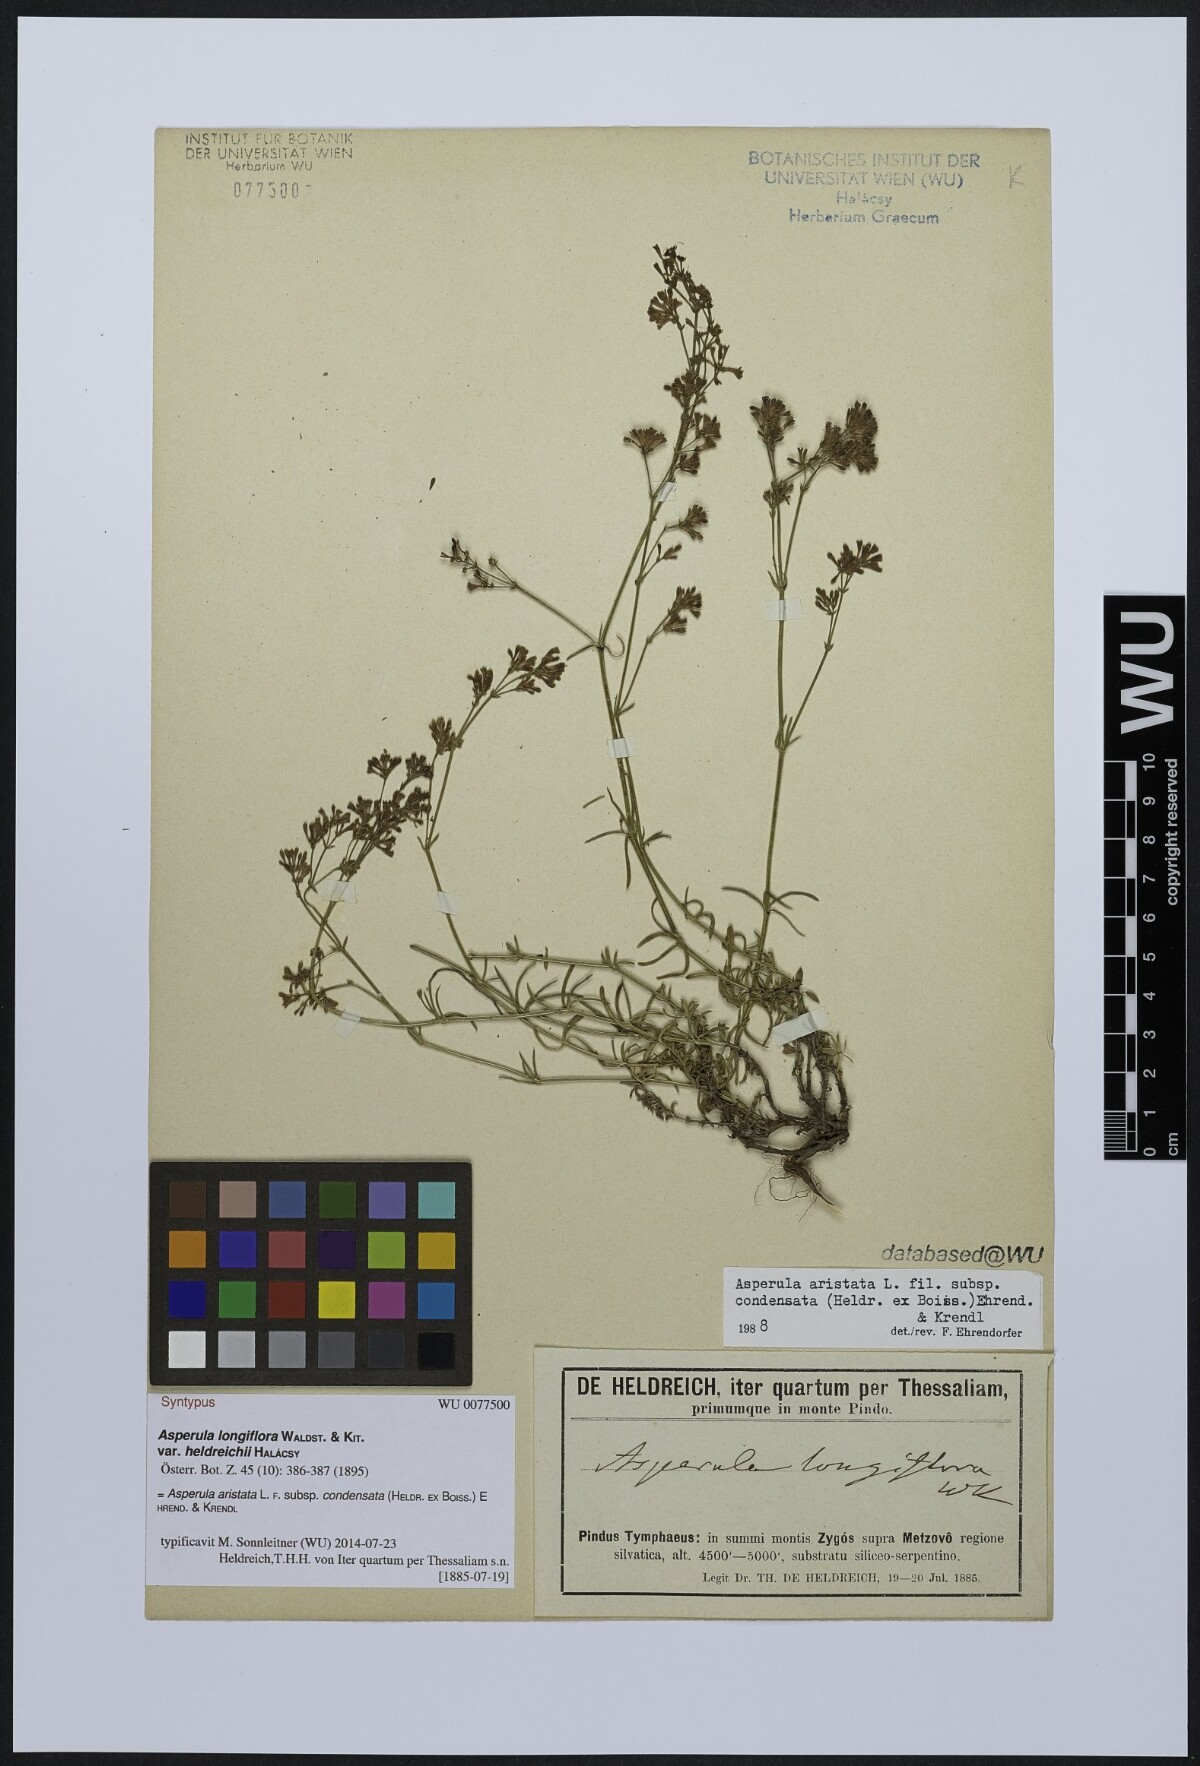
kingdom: Plantae
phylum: Tracheophyta
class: Magnoliopsida
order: Gentianales
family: Rubiaceae
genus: Asperula
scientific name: Asperula longiflora
